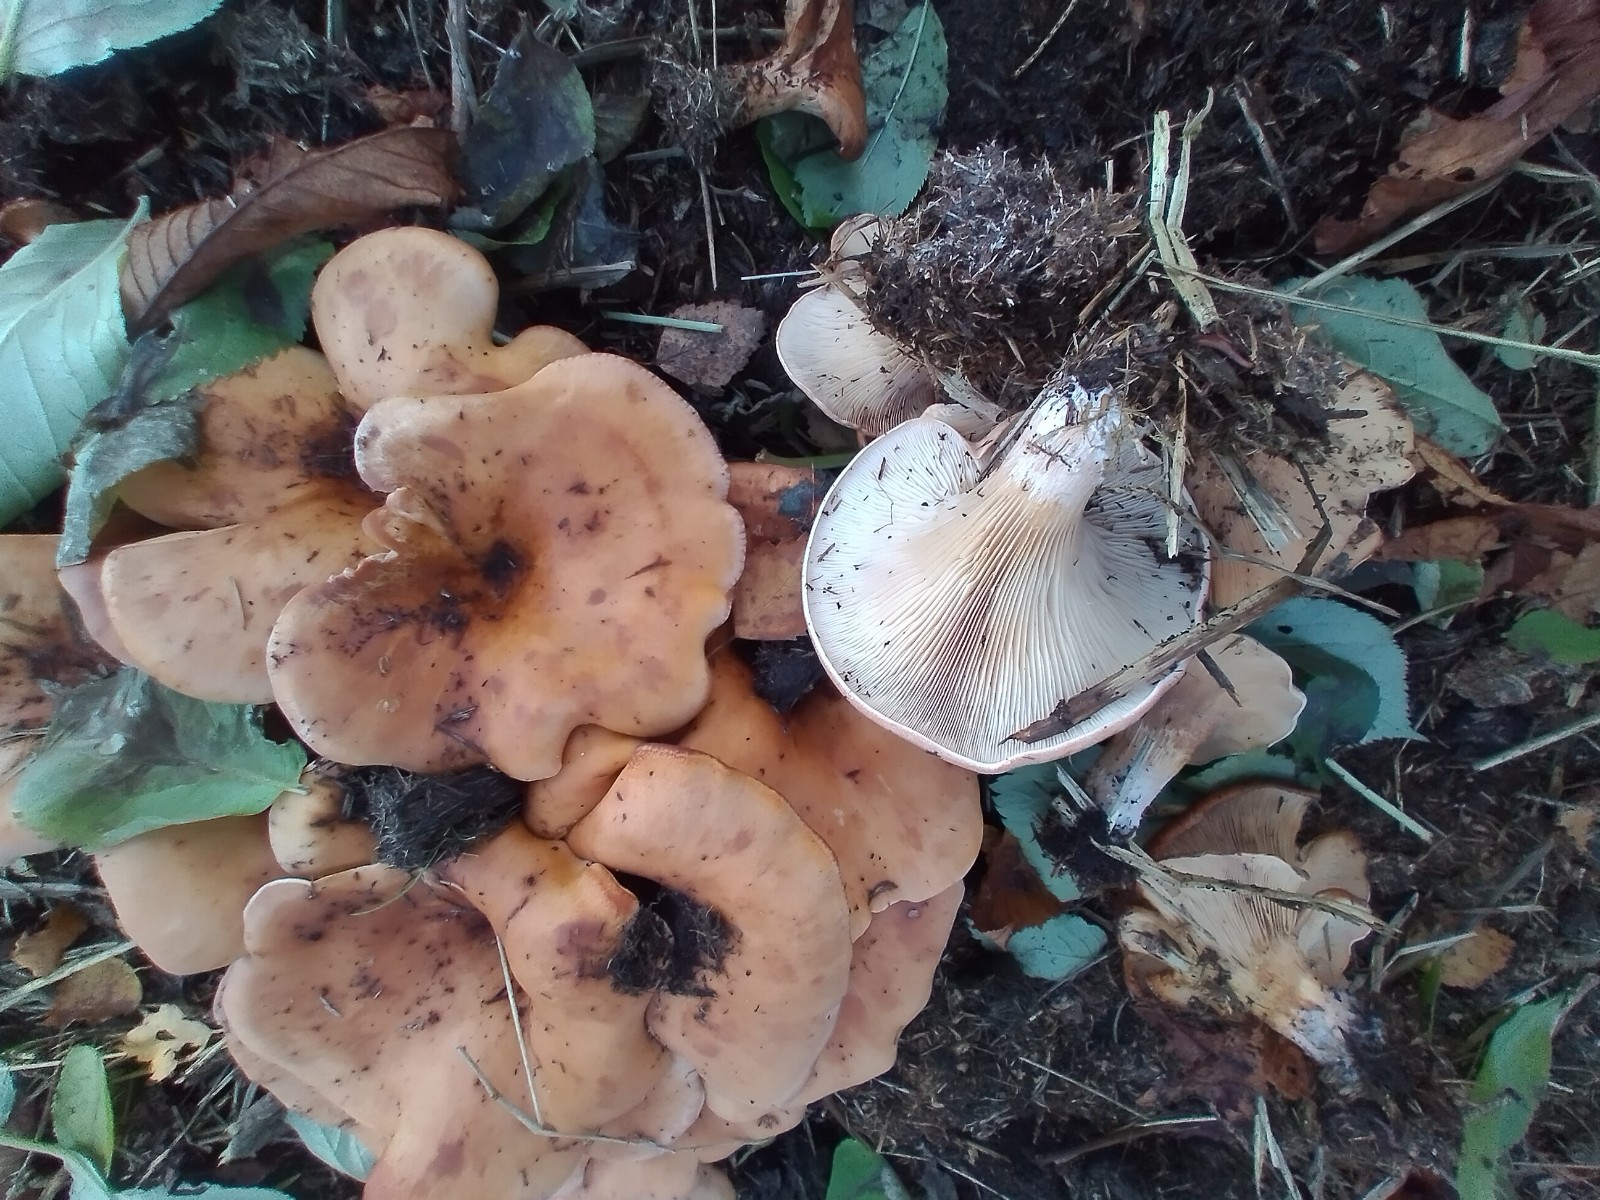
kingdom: Fungi
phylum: Basidiomycota
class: Agaricomycetes
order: Agaricales
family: Tricholomataceae
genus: Paralepista
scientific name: Paralepista flaccida
